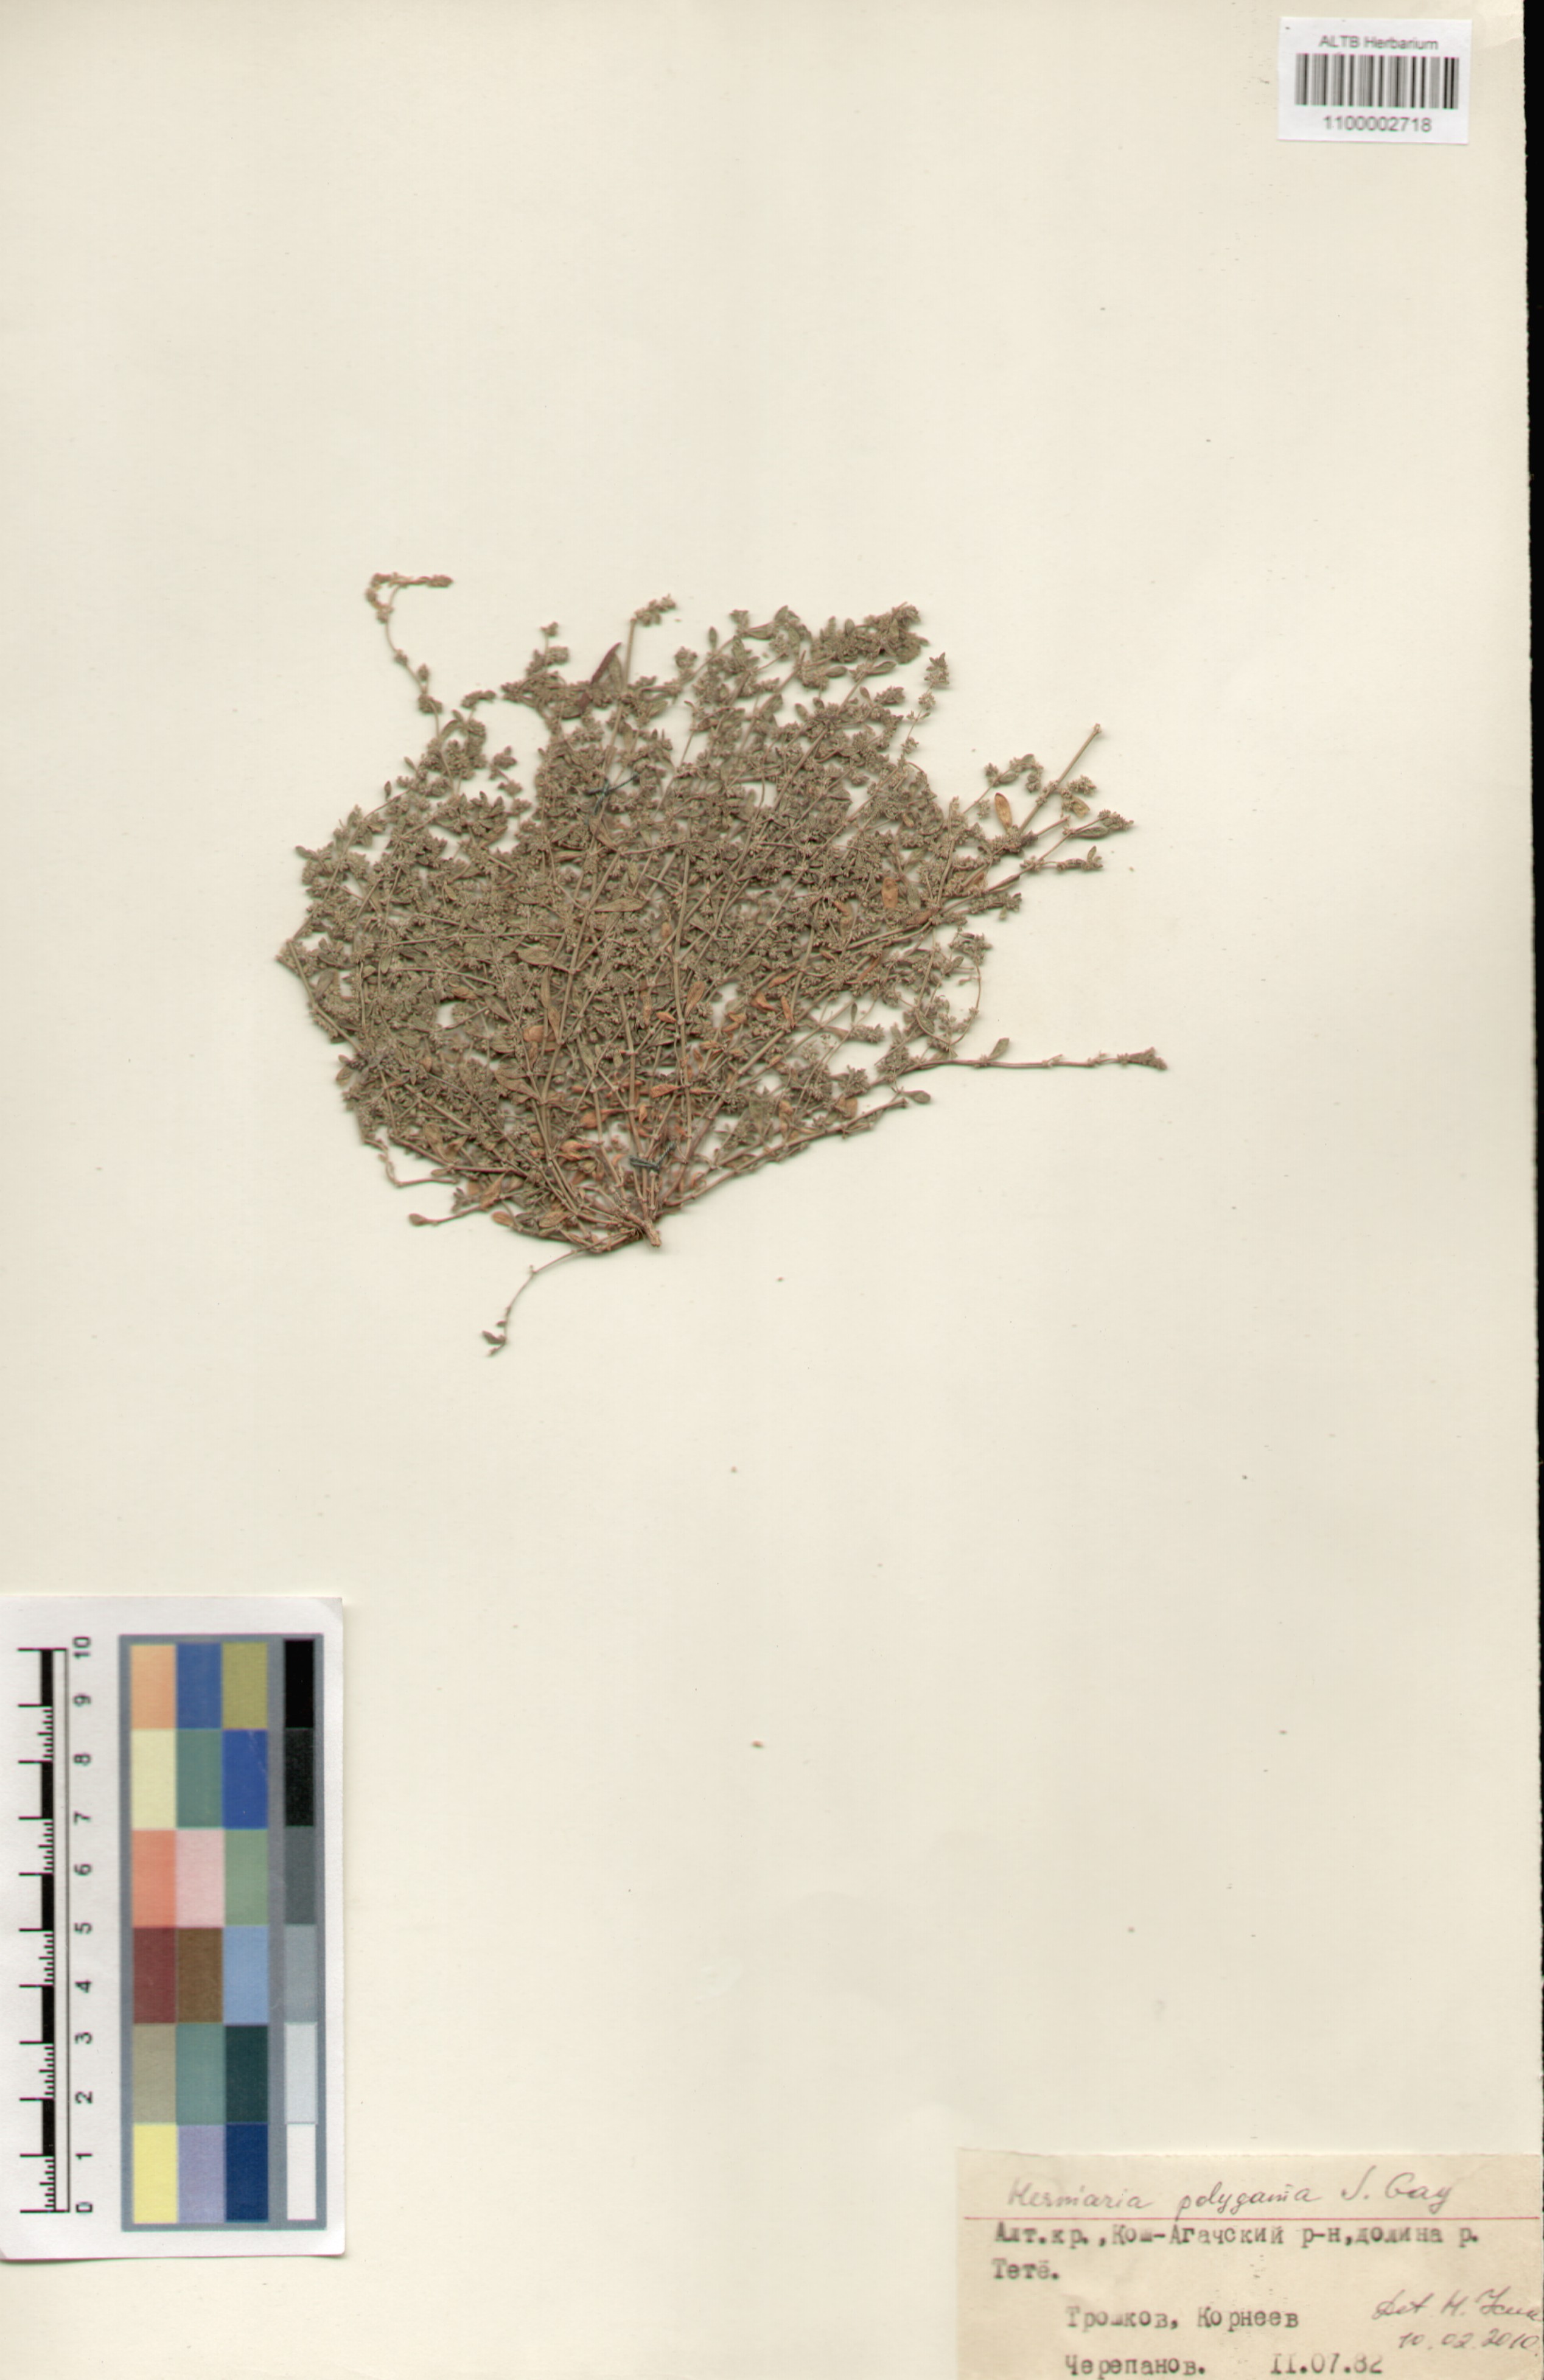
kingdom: Plantae
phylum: Tracheophyta
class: Magnoliopsida
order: Caryophyllales
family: Caryophyllaceae
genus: Herniaria
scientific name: Herniaria polygama
